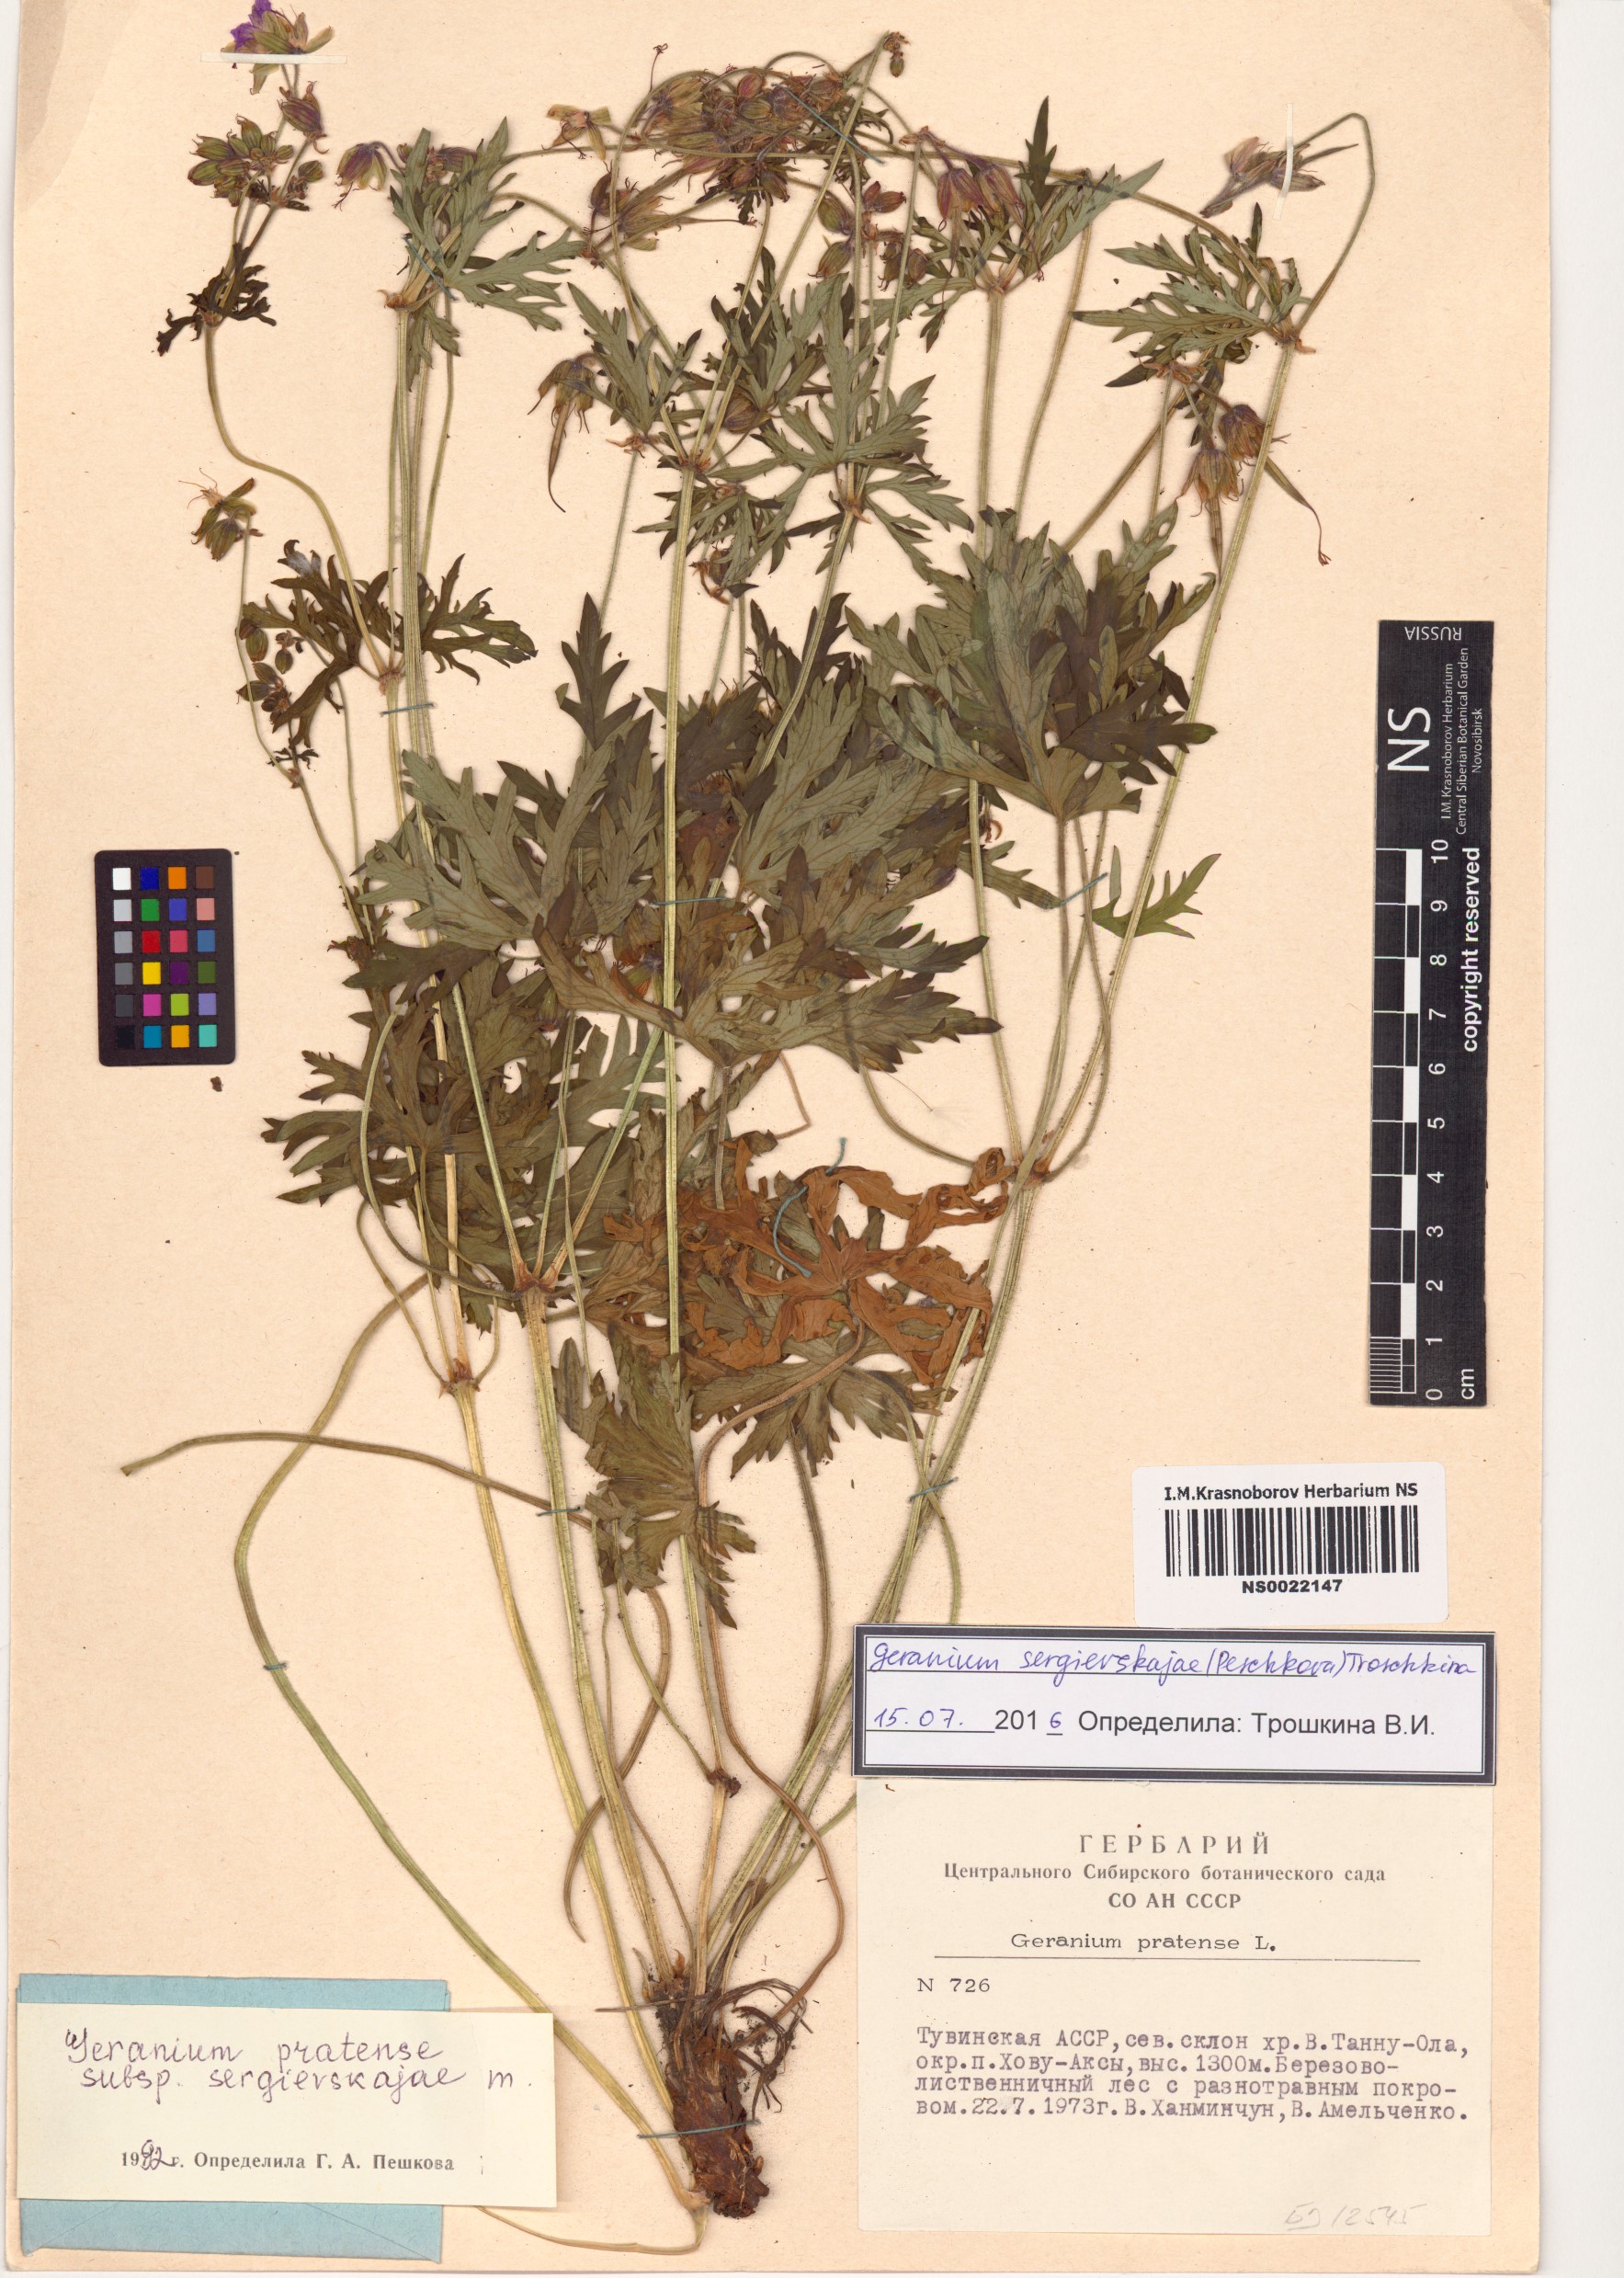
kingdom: Plantae
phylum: Tracheophyta
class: Magnoliopsida
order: Geraniales
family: Geraniaceae
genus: Geranium
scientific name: Geranium pratense
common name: Meadow crane's-bill
